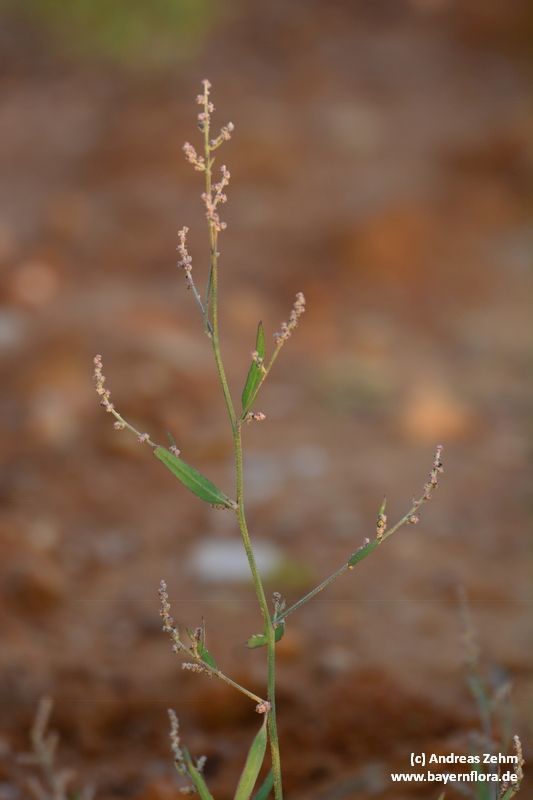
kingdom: Plantae
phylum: Tracheophyta
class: Magnoliopsida
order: Caryophyllales
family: Amaranthaceae
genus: Atriplex
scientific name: Atriplex patula
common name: Common orache
